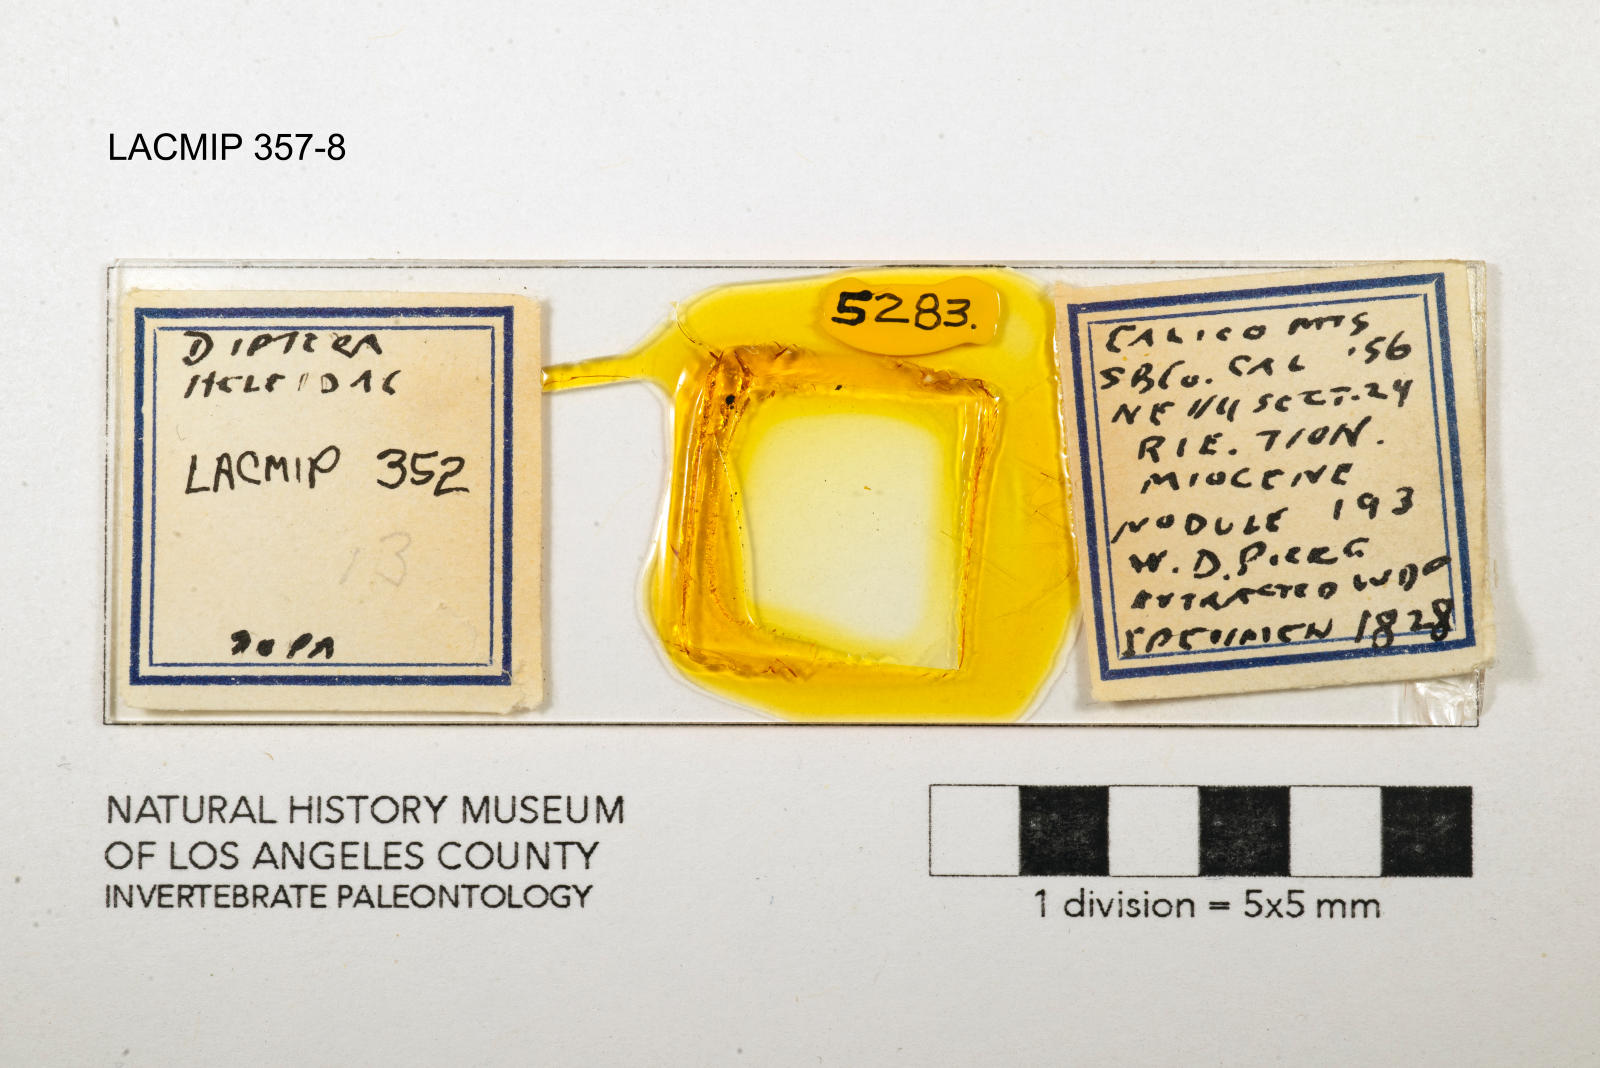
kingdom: Animalia
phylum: Arthropoda
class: Insecta
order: Diptera
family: Ceratopogonidae
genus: Dasyhelea
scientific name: Dasyhelea browneae
